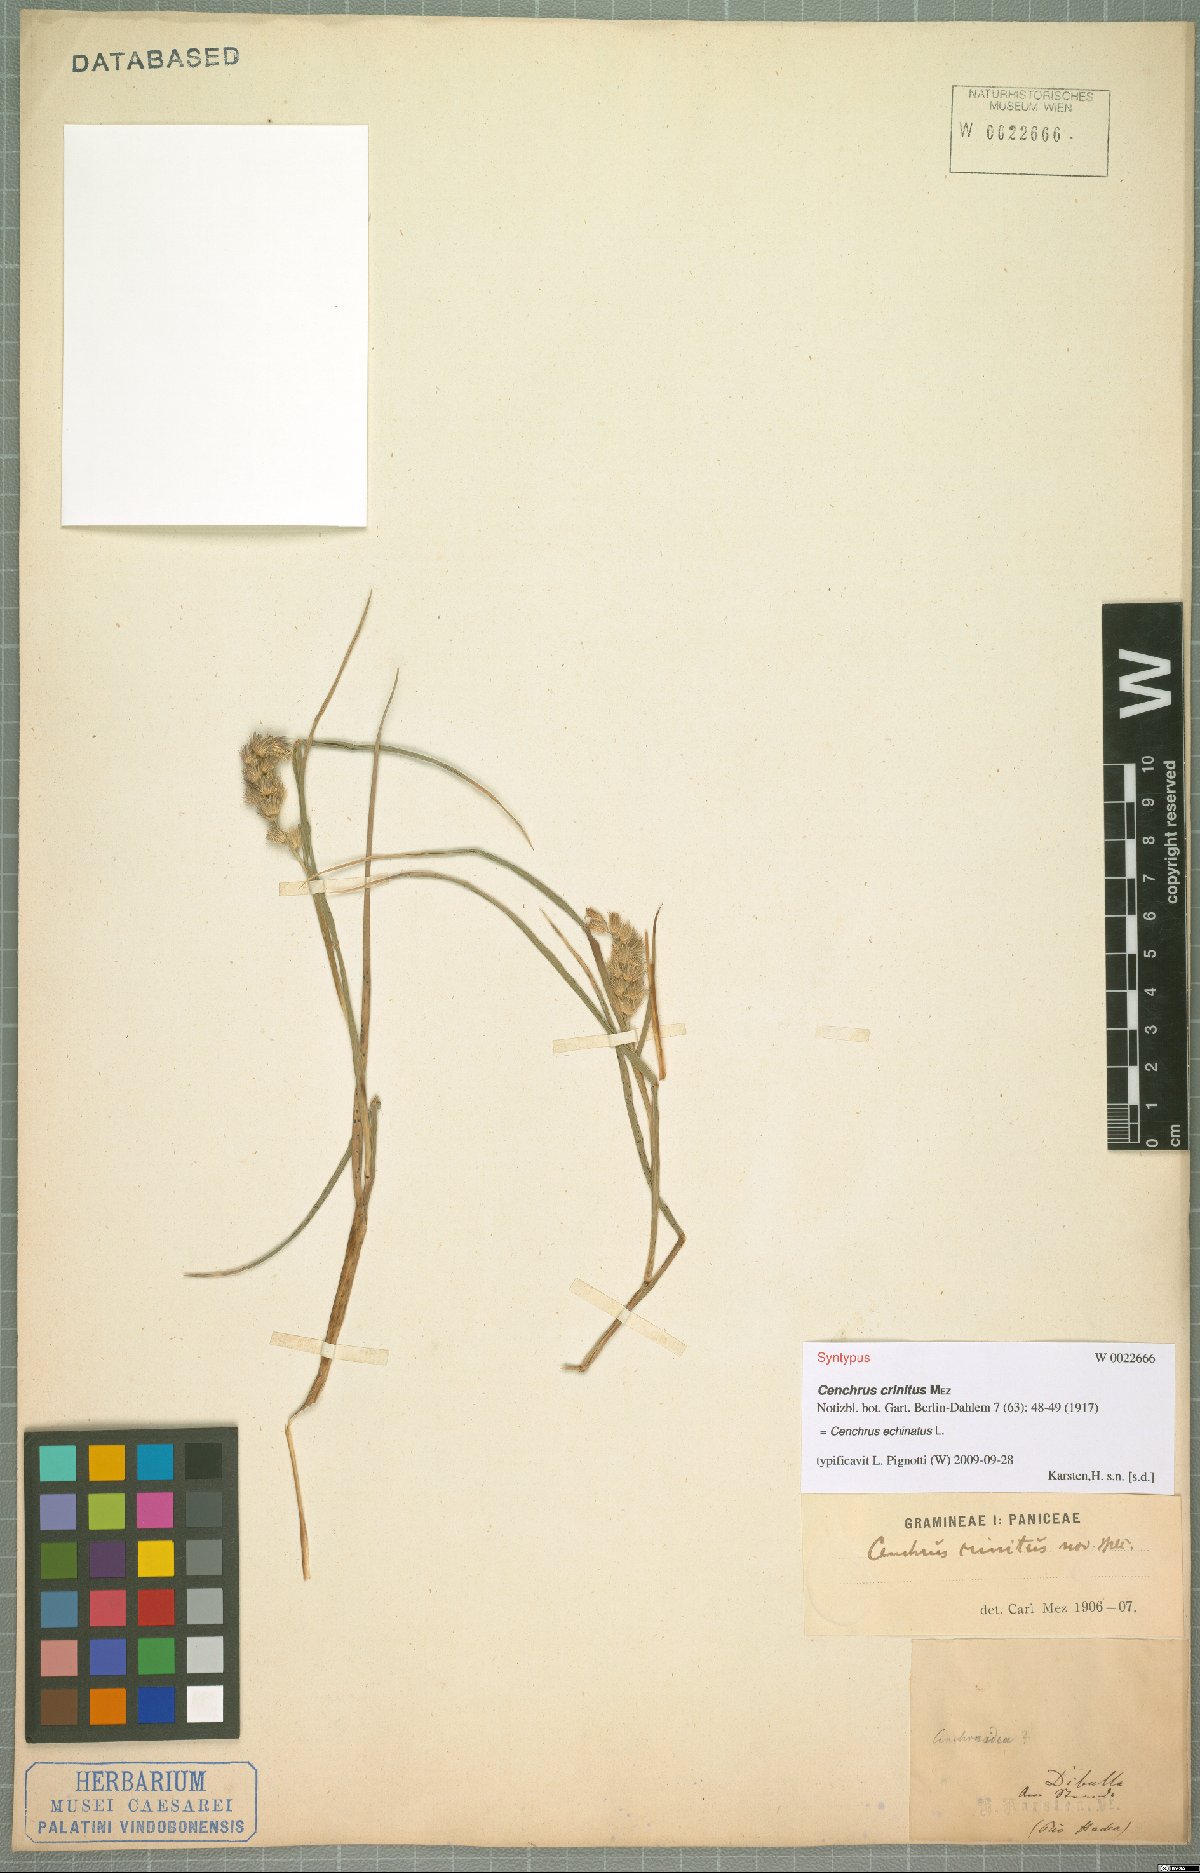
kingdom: Plantae
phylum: Tracheophyta
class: Liliopsida
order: Poales
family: Poaceae
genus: Cenchrus
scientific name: Cenchrus echinatus
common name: Southern sandbur
